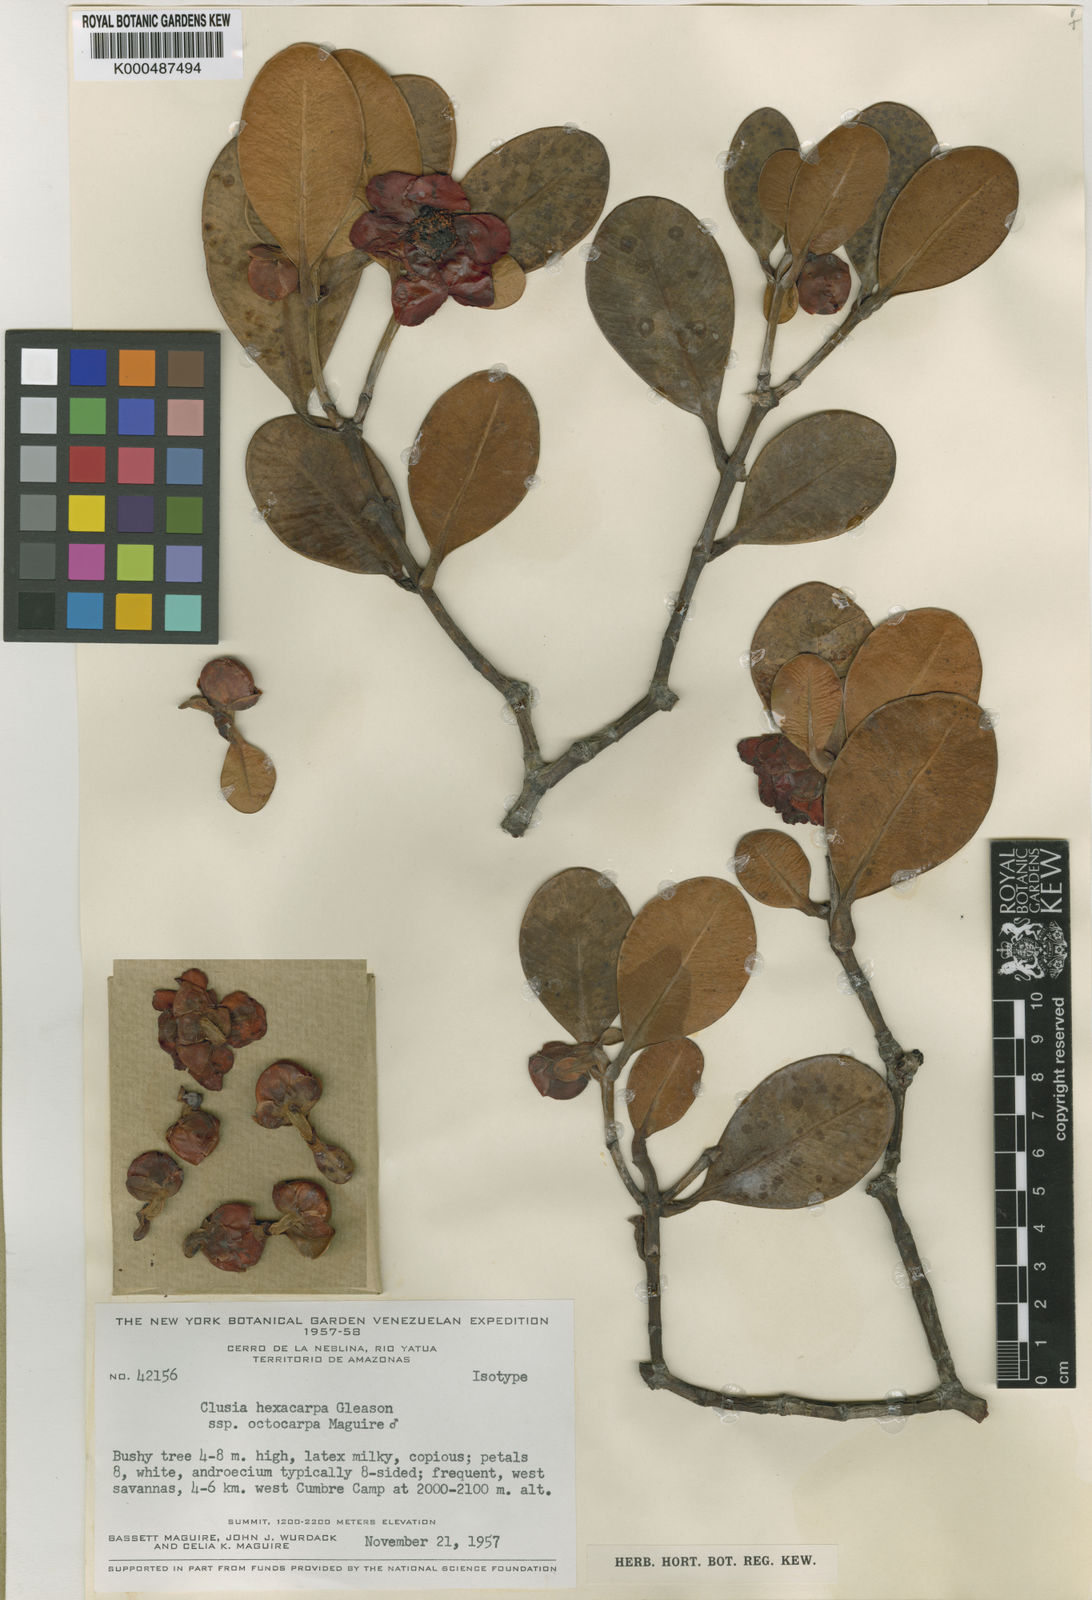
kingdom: Plantae
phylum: Tracheophyta
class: Magnoliopsida
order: Malpighiales
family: Clusiaceae
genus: Clusia
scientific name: Clusia hexacarpa
